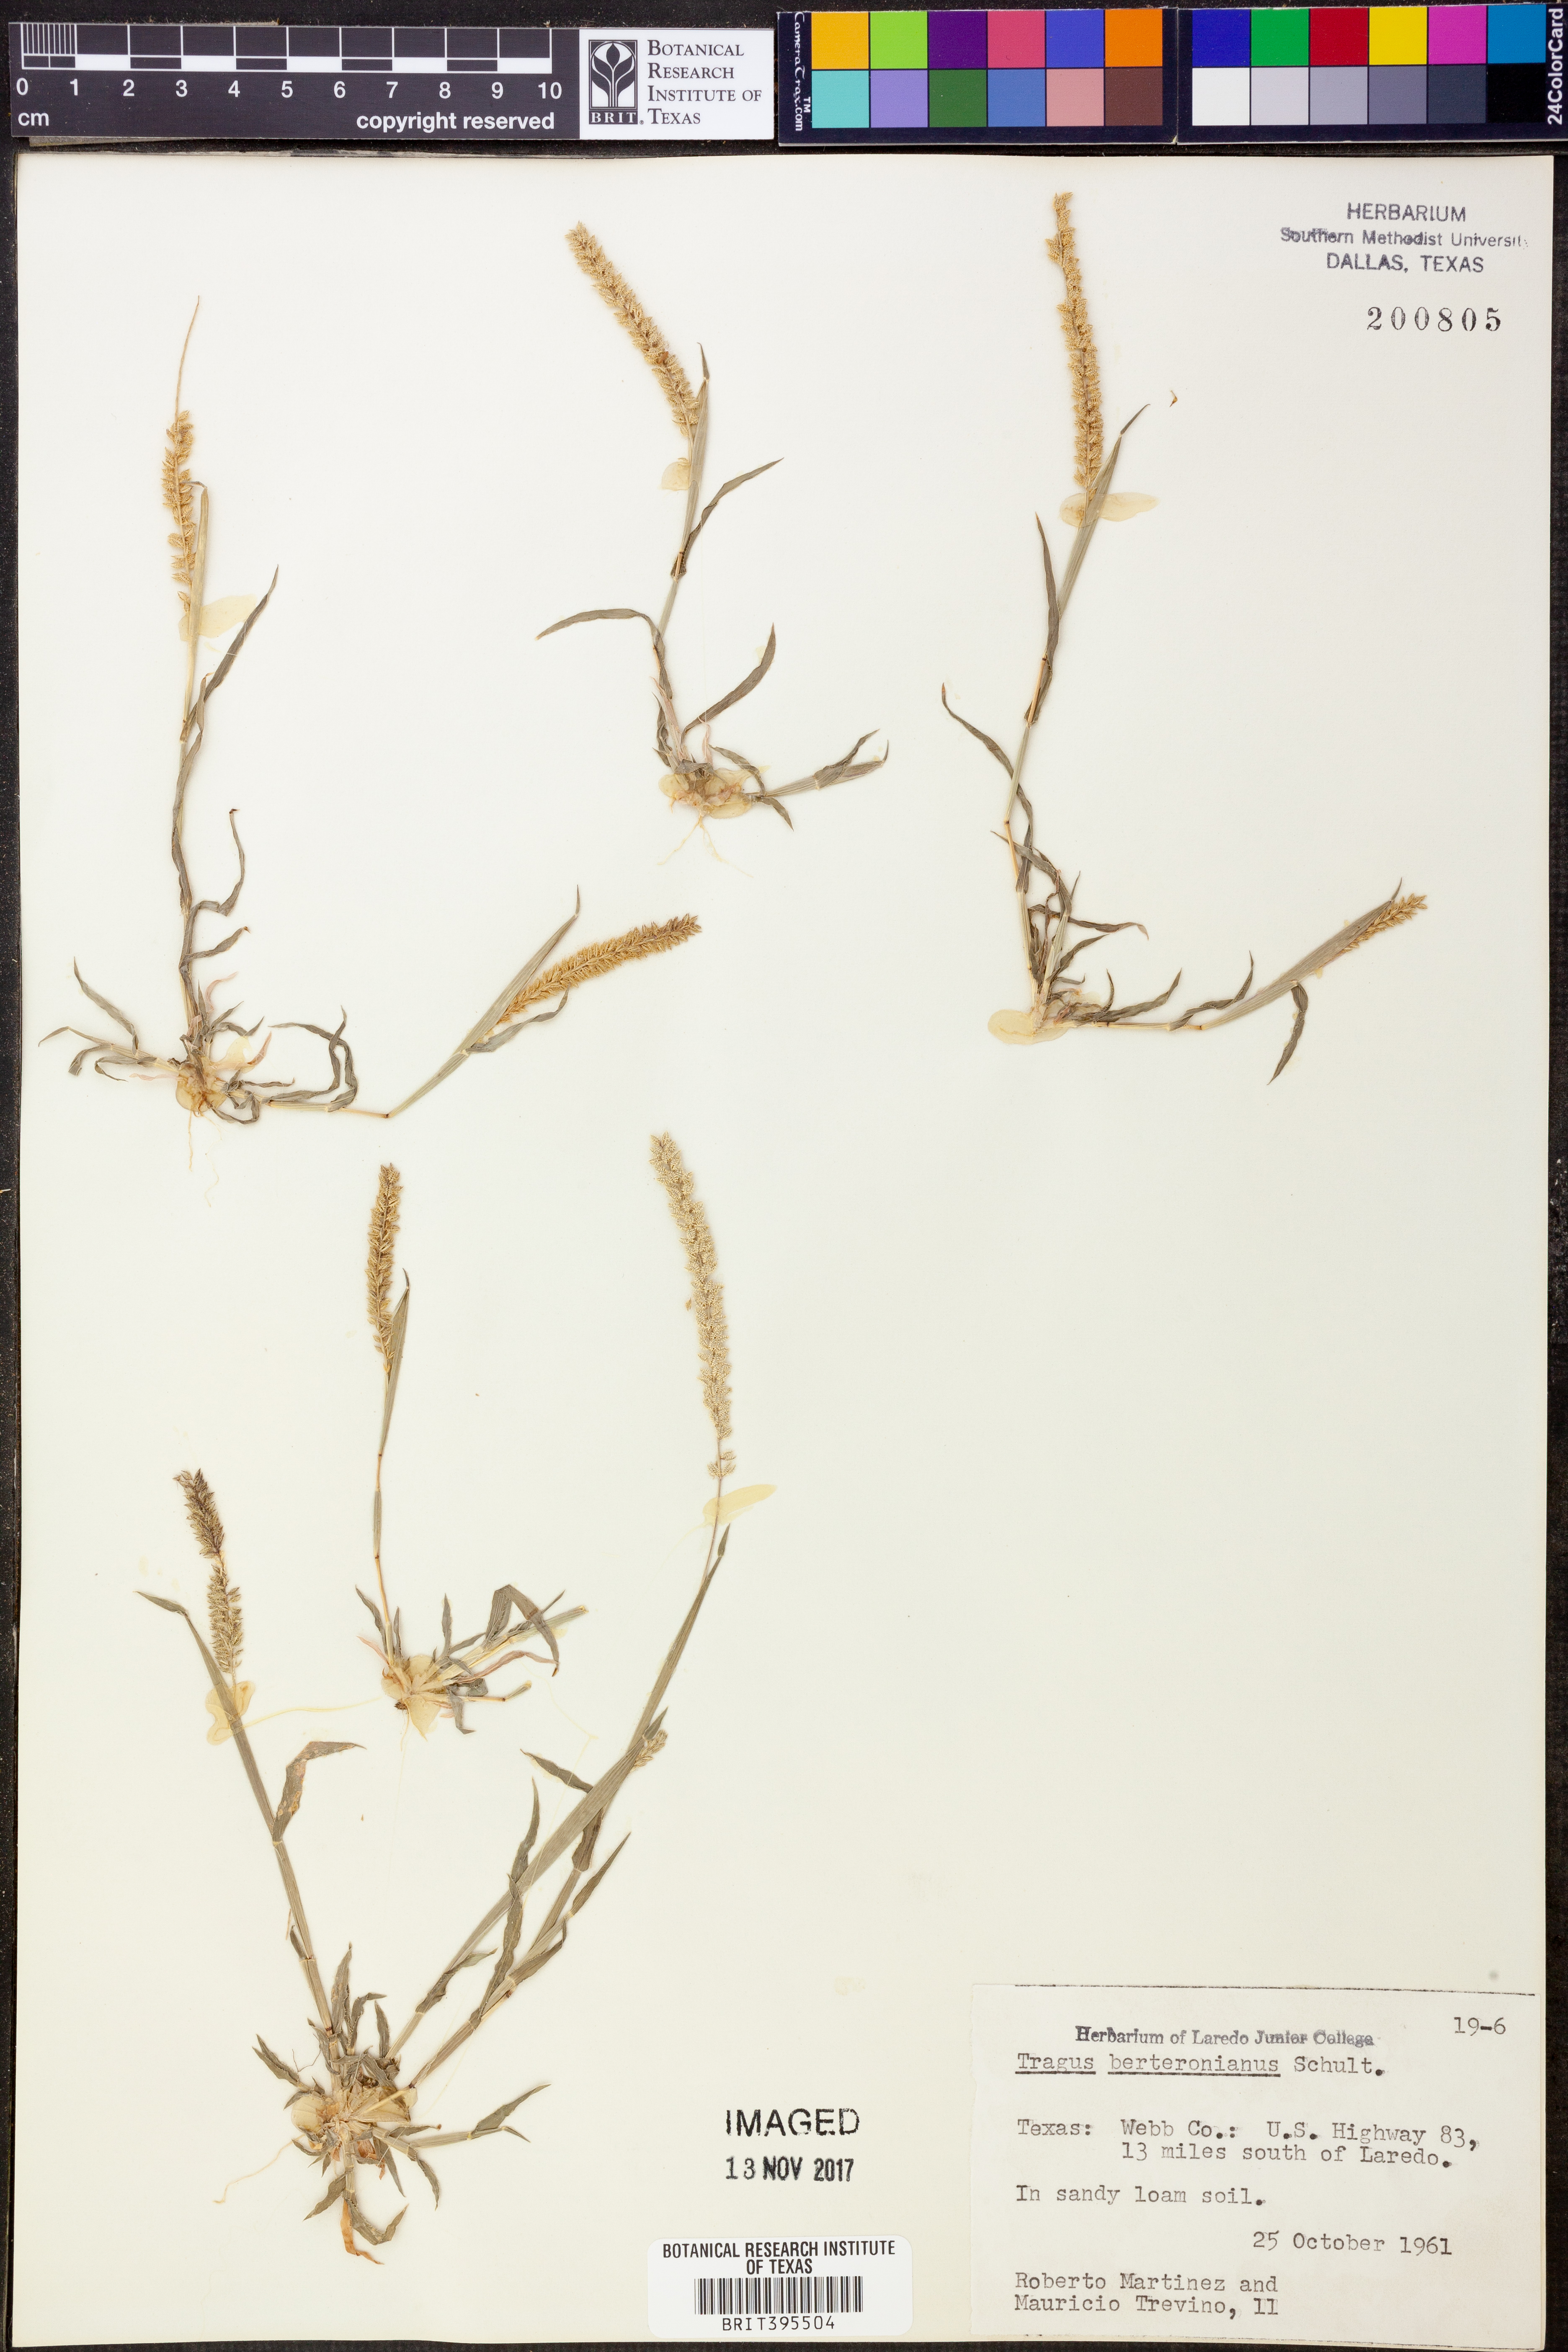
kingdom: Plantae
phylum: Tracheophyta
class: Liliopsida
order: Poales
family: Poaceae
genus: Tragus
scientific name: Tragus berteronianus
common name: African bur-grass
